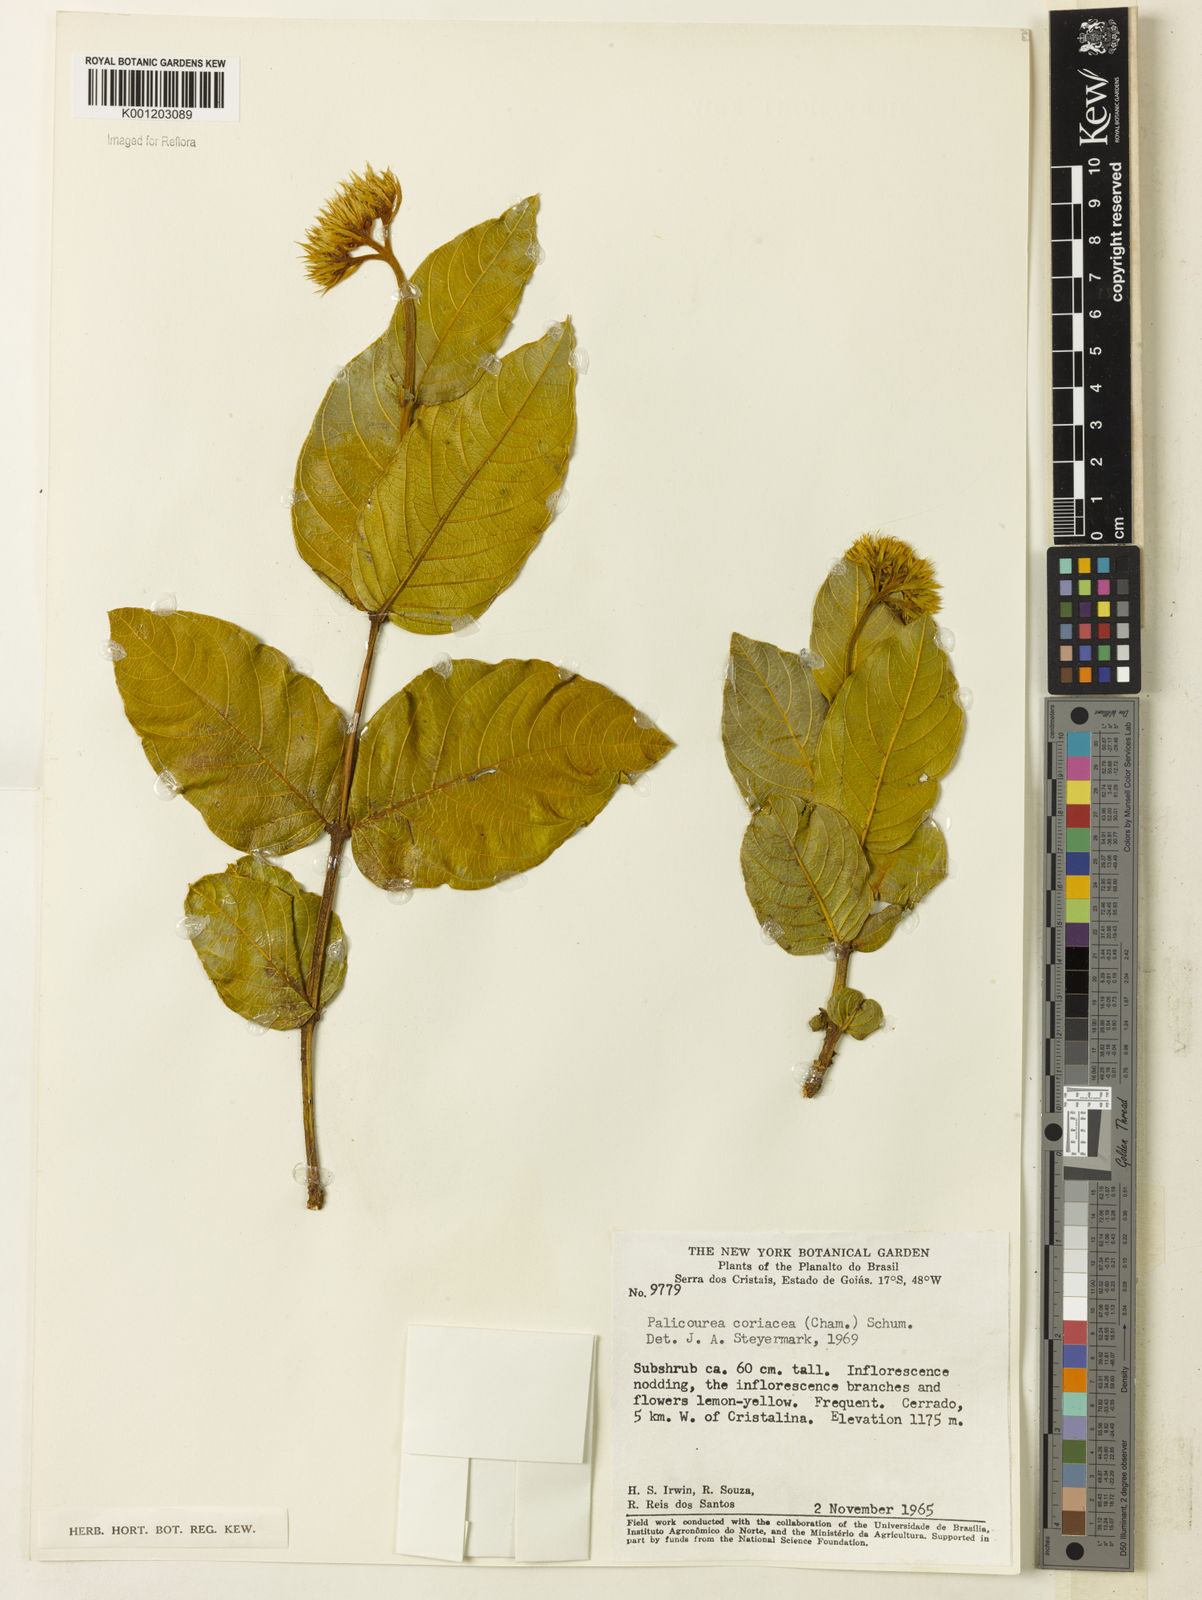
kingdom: Plantae
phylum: Tracheophyta
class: Magnoliopsida
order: Gentianales
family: Rubiaceae
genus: Palicourea
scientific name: Palicourea coriacea
